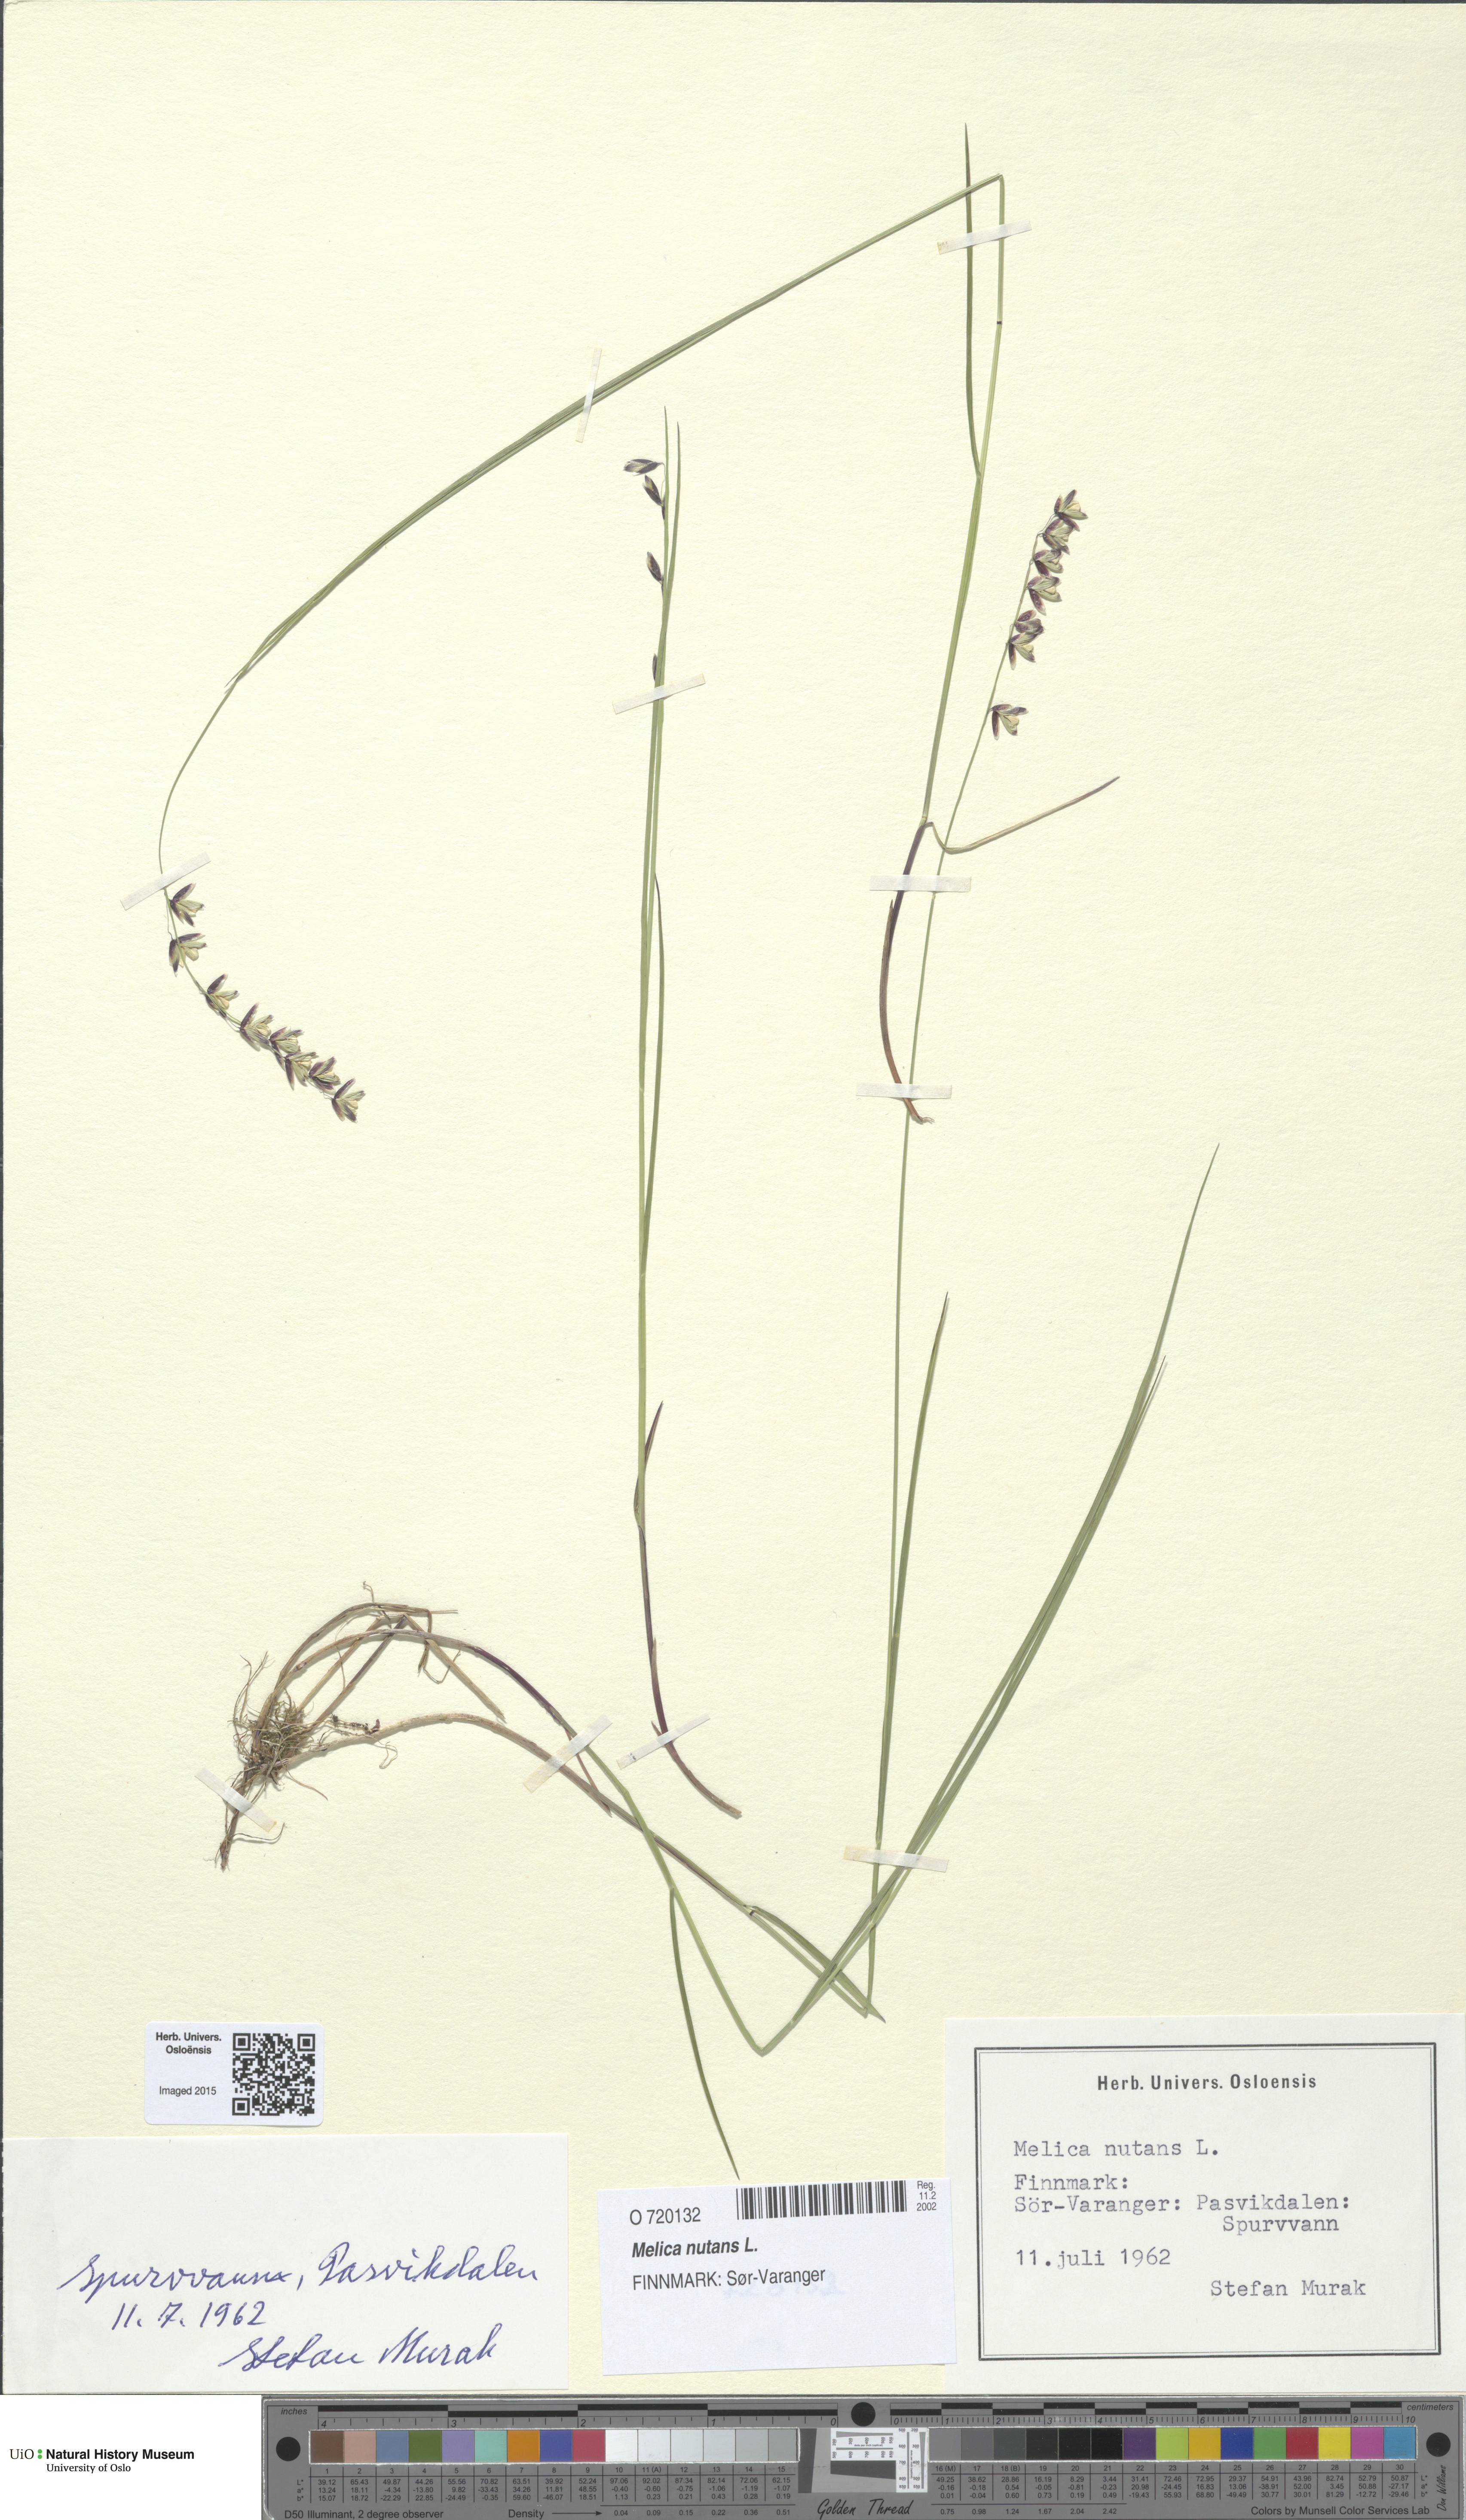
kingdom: Plantae
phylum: Tracheophyta
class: Liliopsida
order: Poales
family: Poaceae
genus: Melica
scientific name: Melica nutans
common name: Mountain melick
